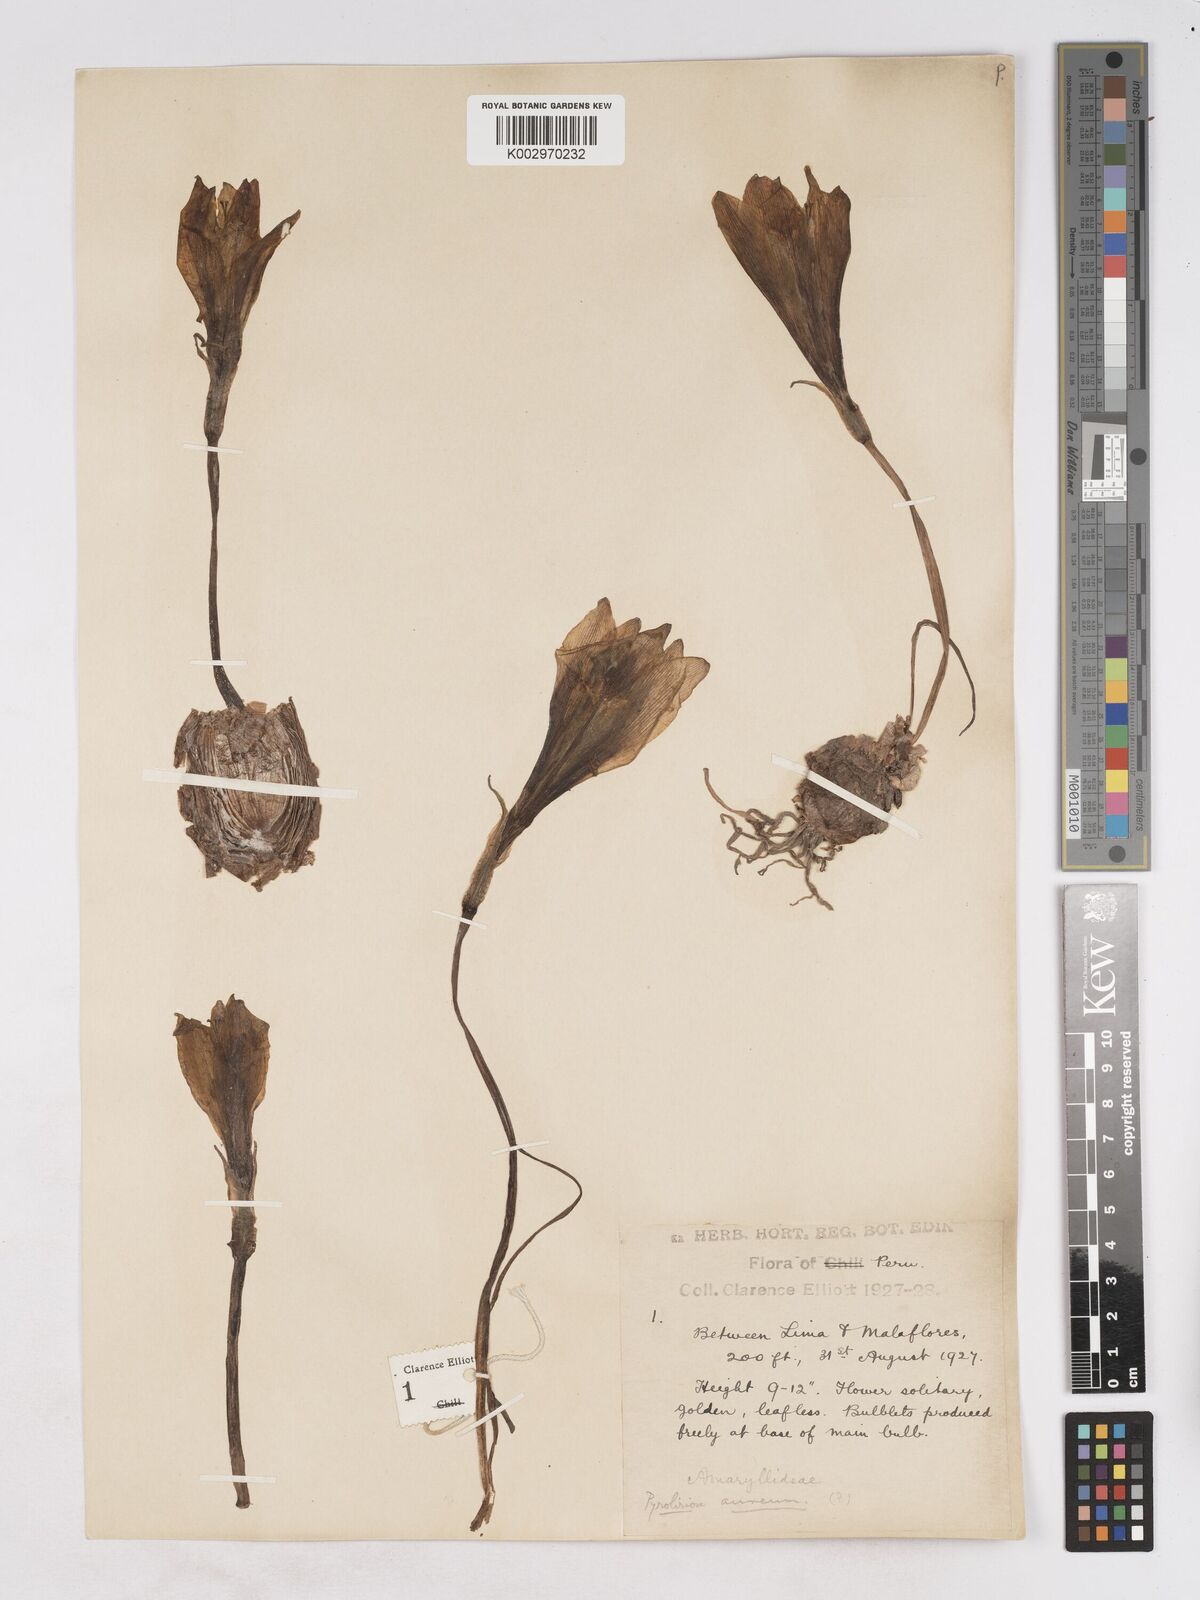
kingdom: Plantae
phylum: Tracheophyta
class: Liliopsida
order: Asparagales
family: Amaryllidaceae
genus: Pyrolirion
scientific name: Pyrolirion tubiflorum
